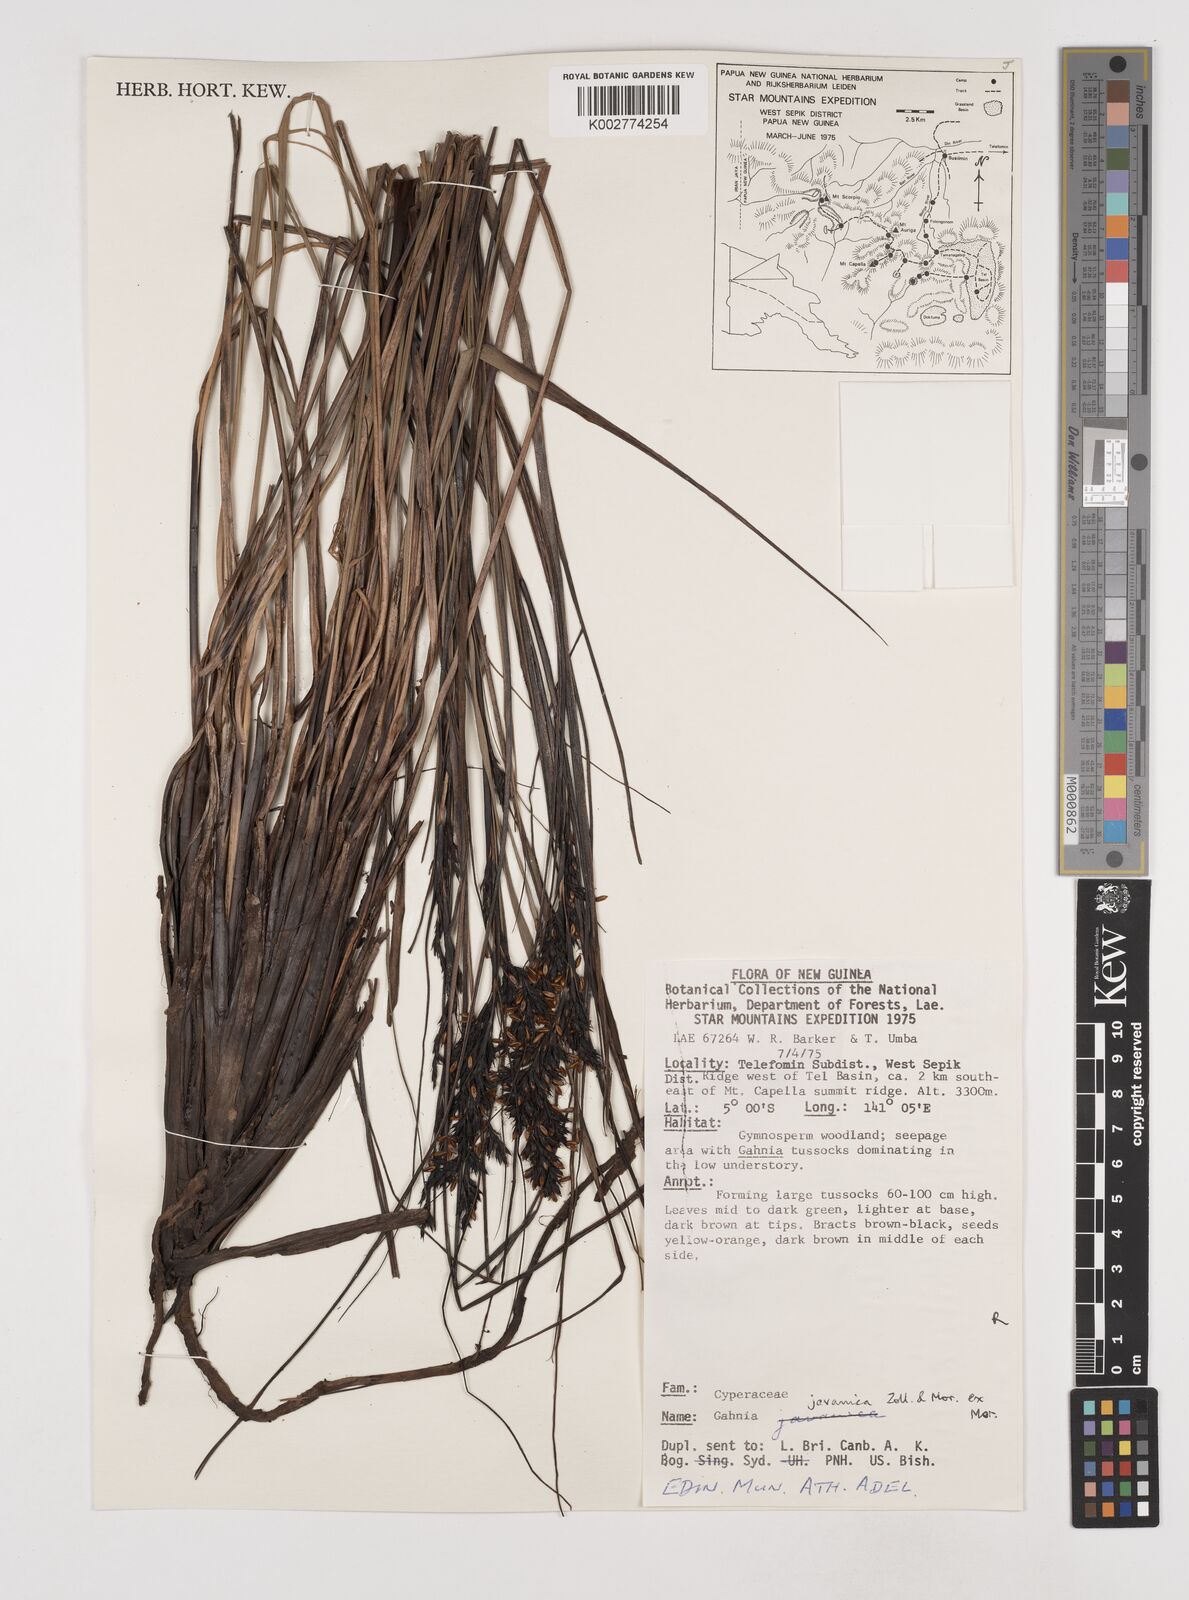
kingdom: Plantae
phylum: Tracheophyta
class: Liliopsida
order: Poales
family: Cyperaceae
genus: Gahnia
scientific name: Gahnia javanica
